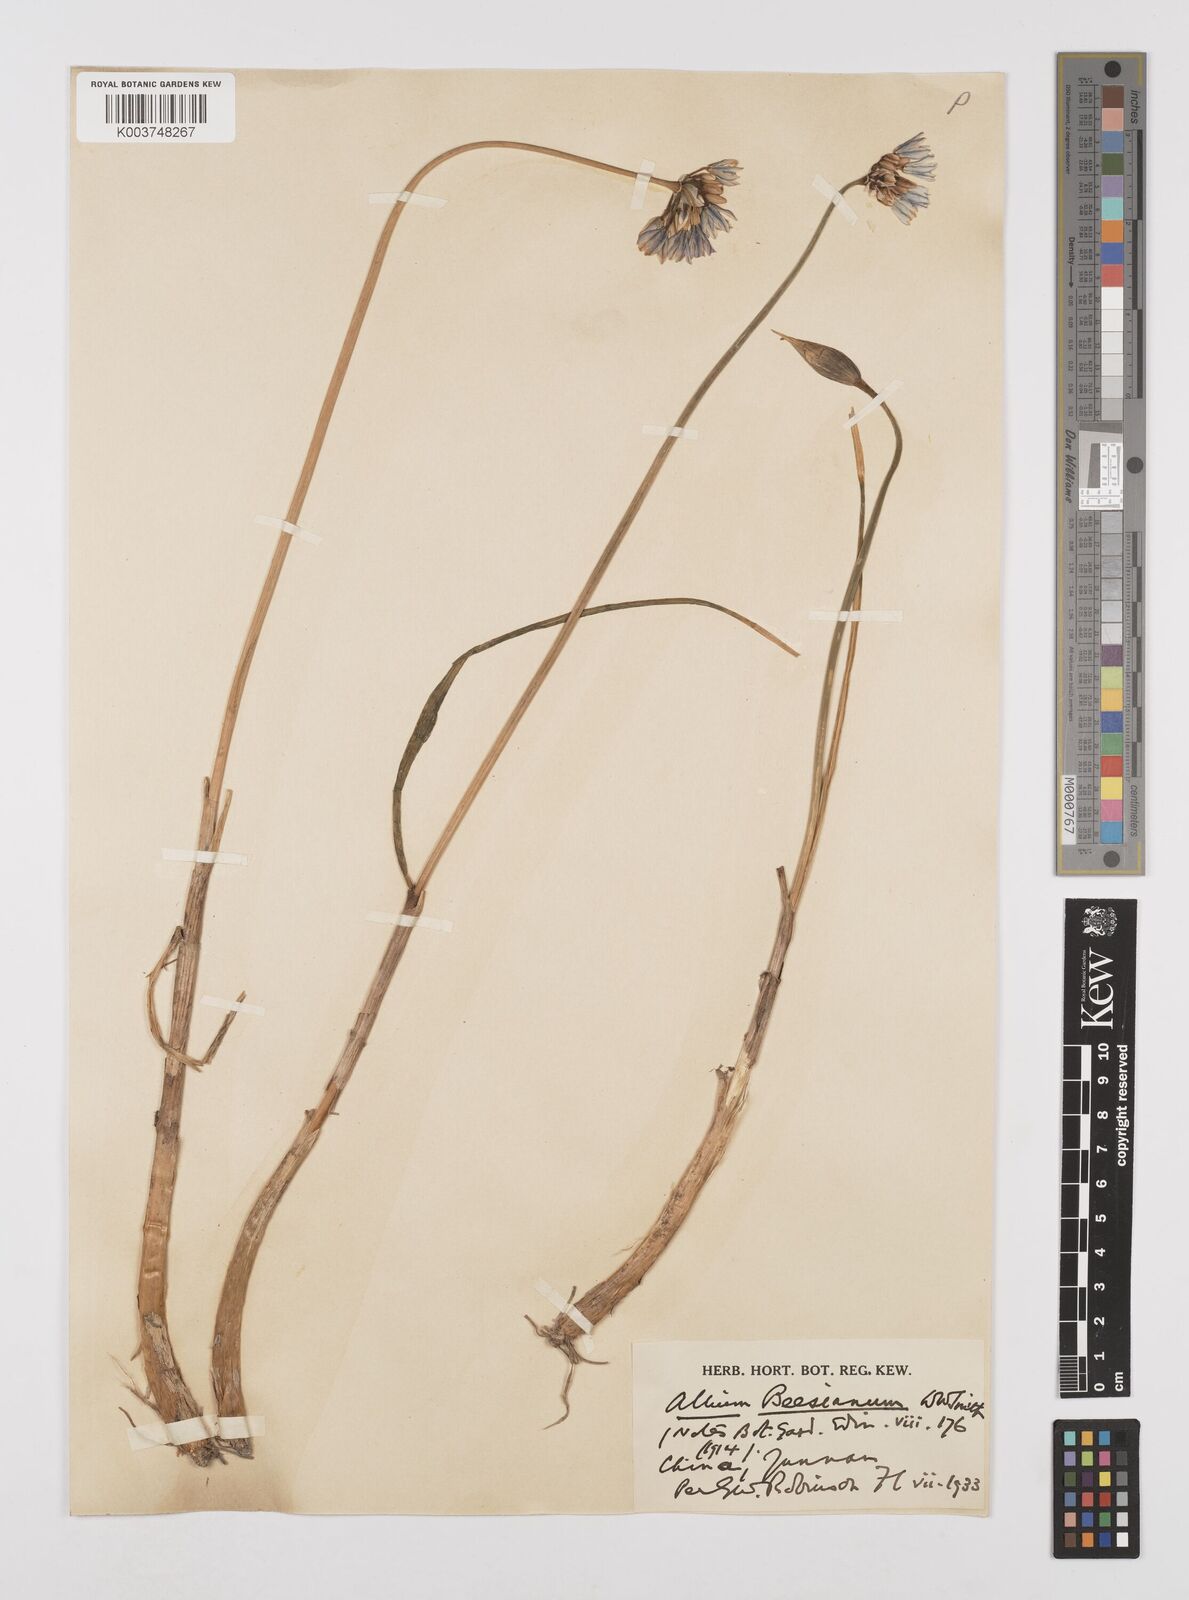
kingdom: Plantae
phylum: Tracheophyta
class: Liliopsida
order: Asparagales
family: Amaryllidaceae
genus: Allium
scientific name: Allium beesianum
